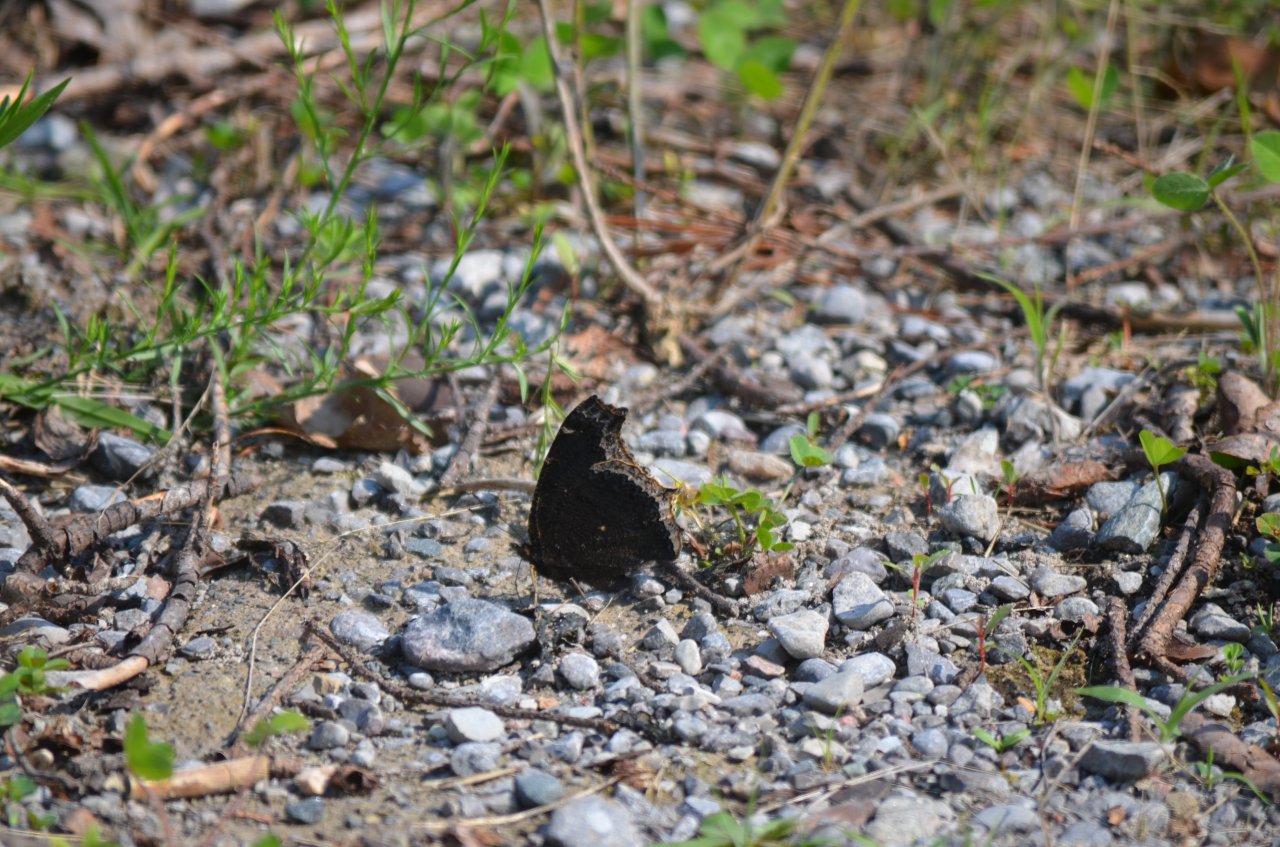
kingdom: Animalia
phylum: Arthropoda
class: Insecta
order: Lepidoptera
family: Nymphalidae
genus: Nymphalis
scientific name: Nymphalis antiopa
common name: Mourning Cloak
